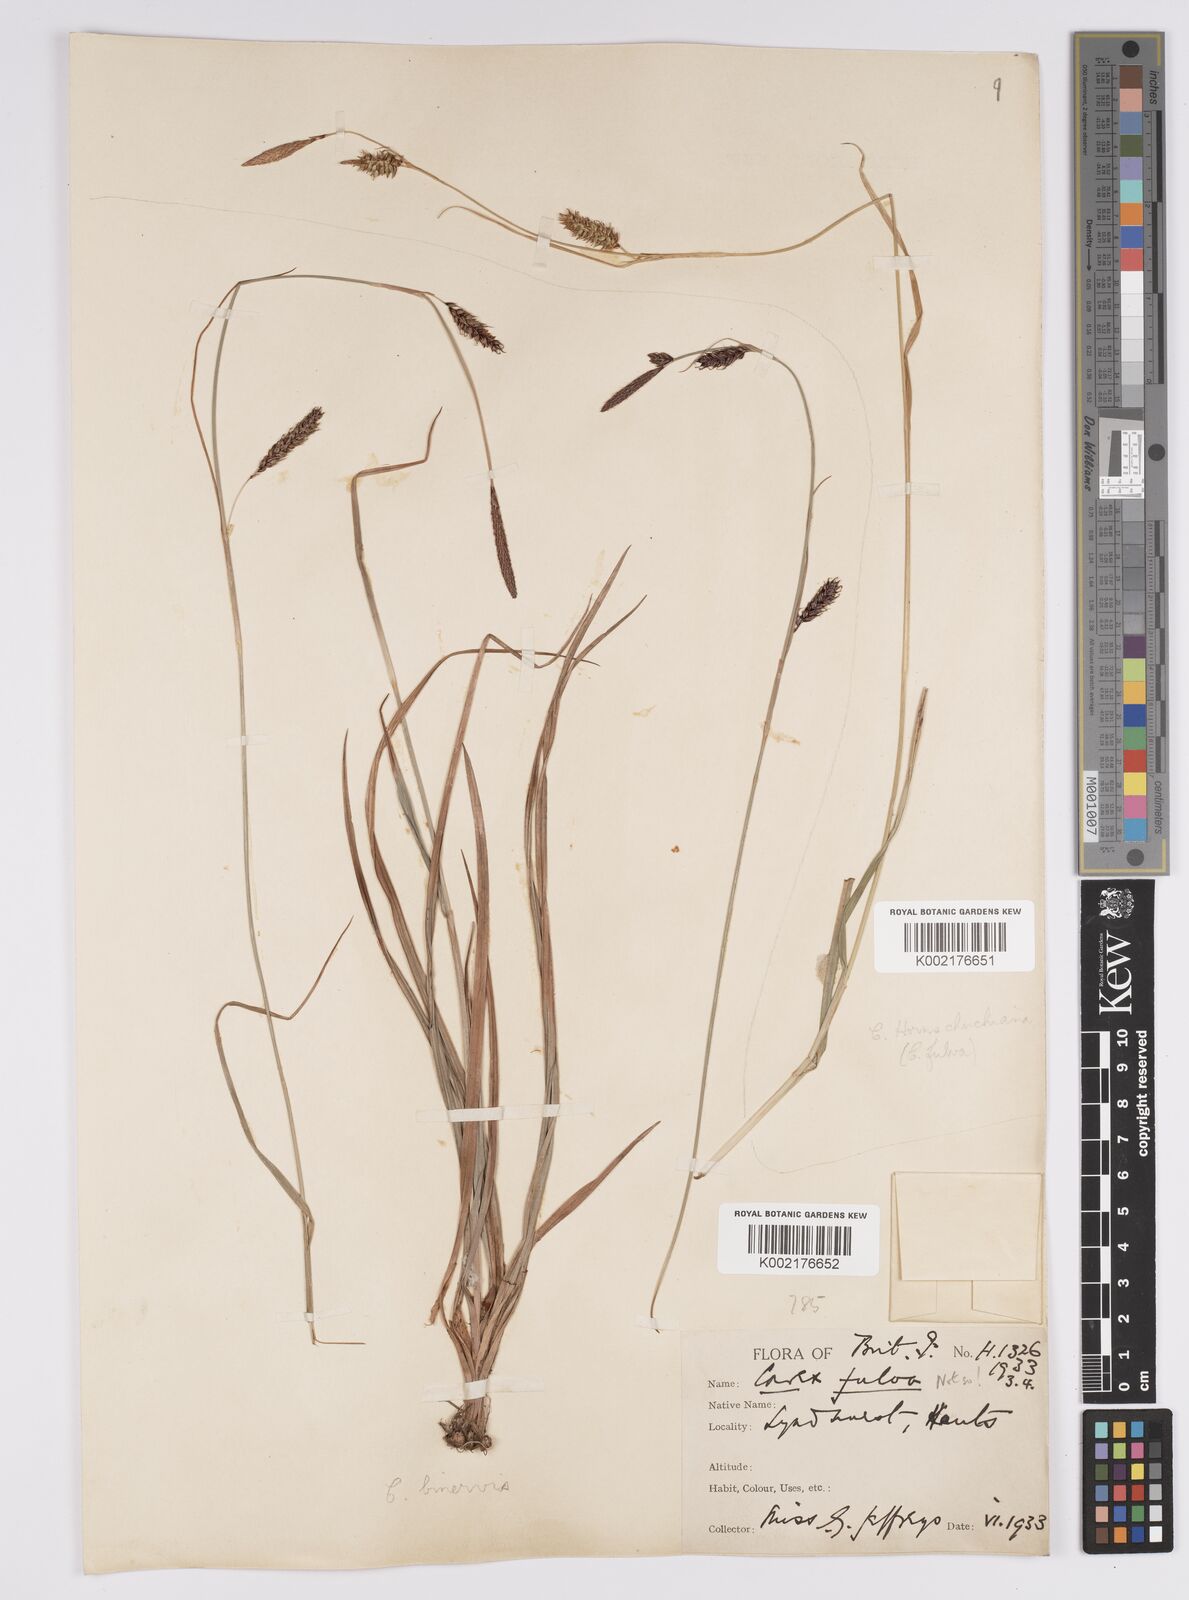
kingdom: Plantae
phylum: Tracheophyta
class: Liliopsida
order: Poales
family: Cyperaceae
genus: Carex
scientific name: Carex binervis
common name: Green-ribbed sedge
